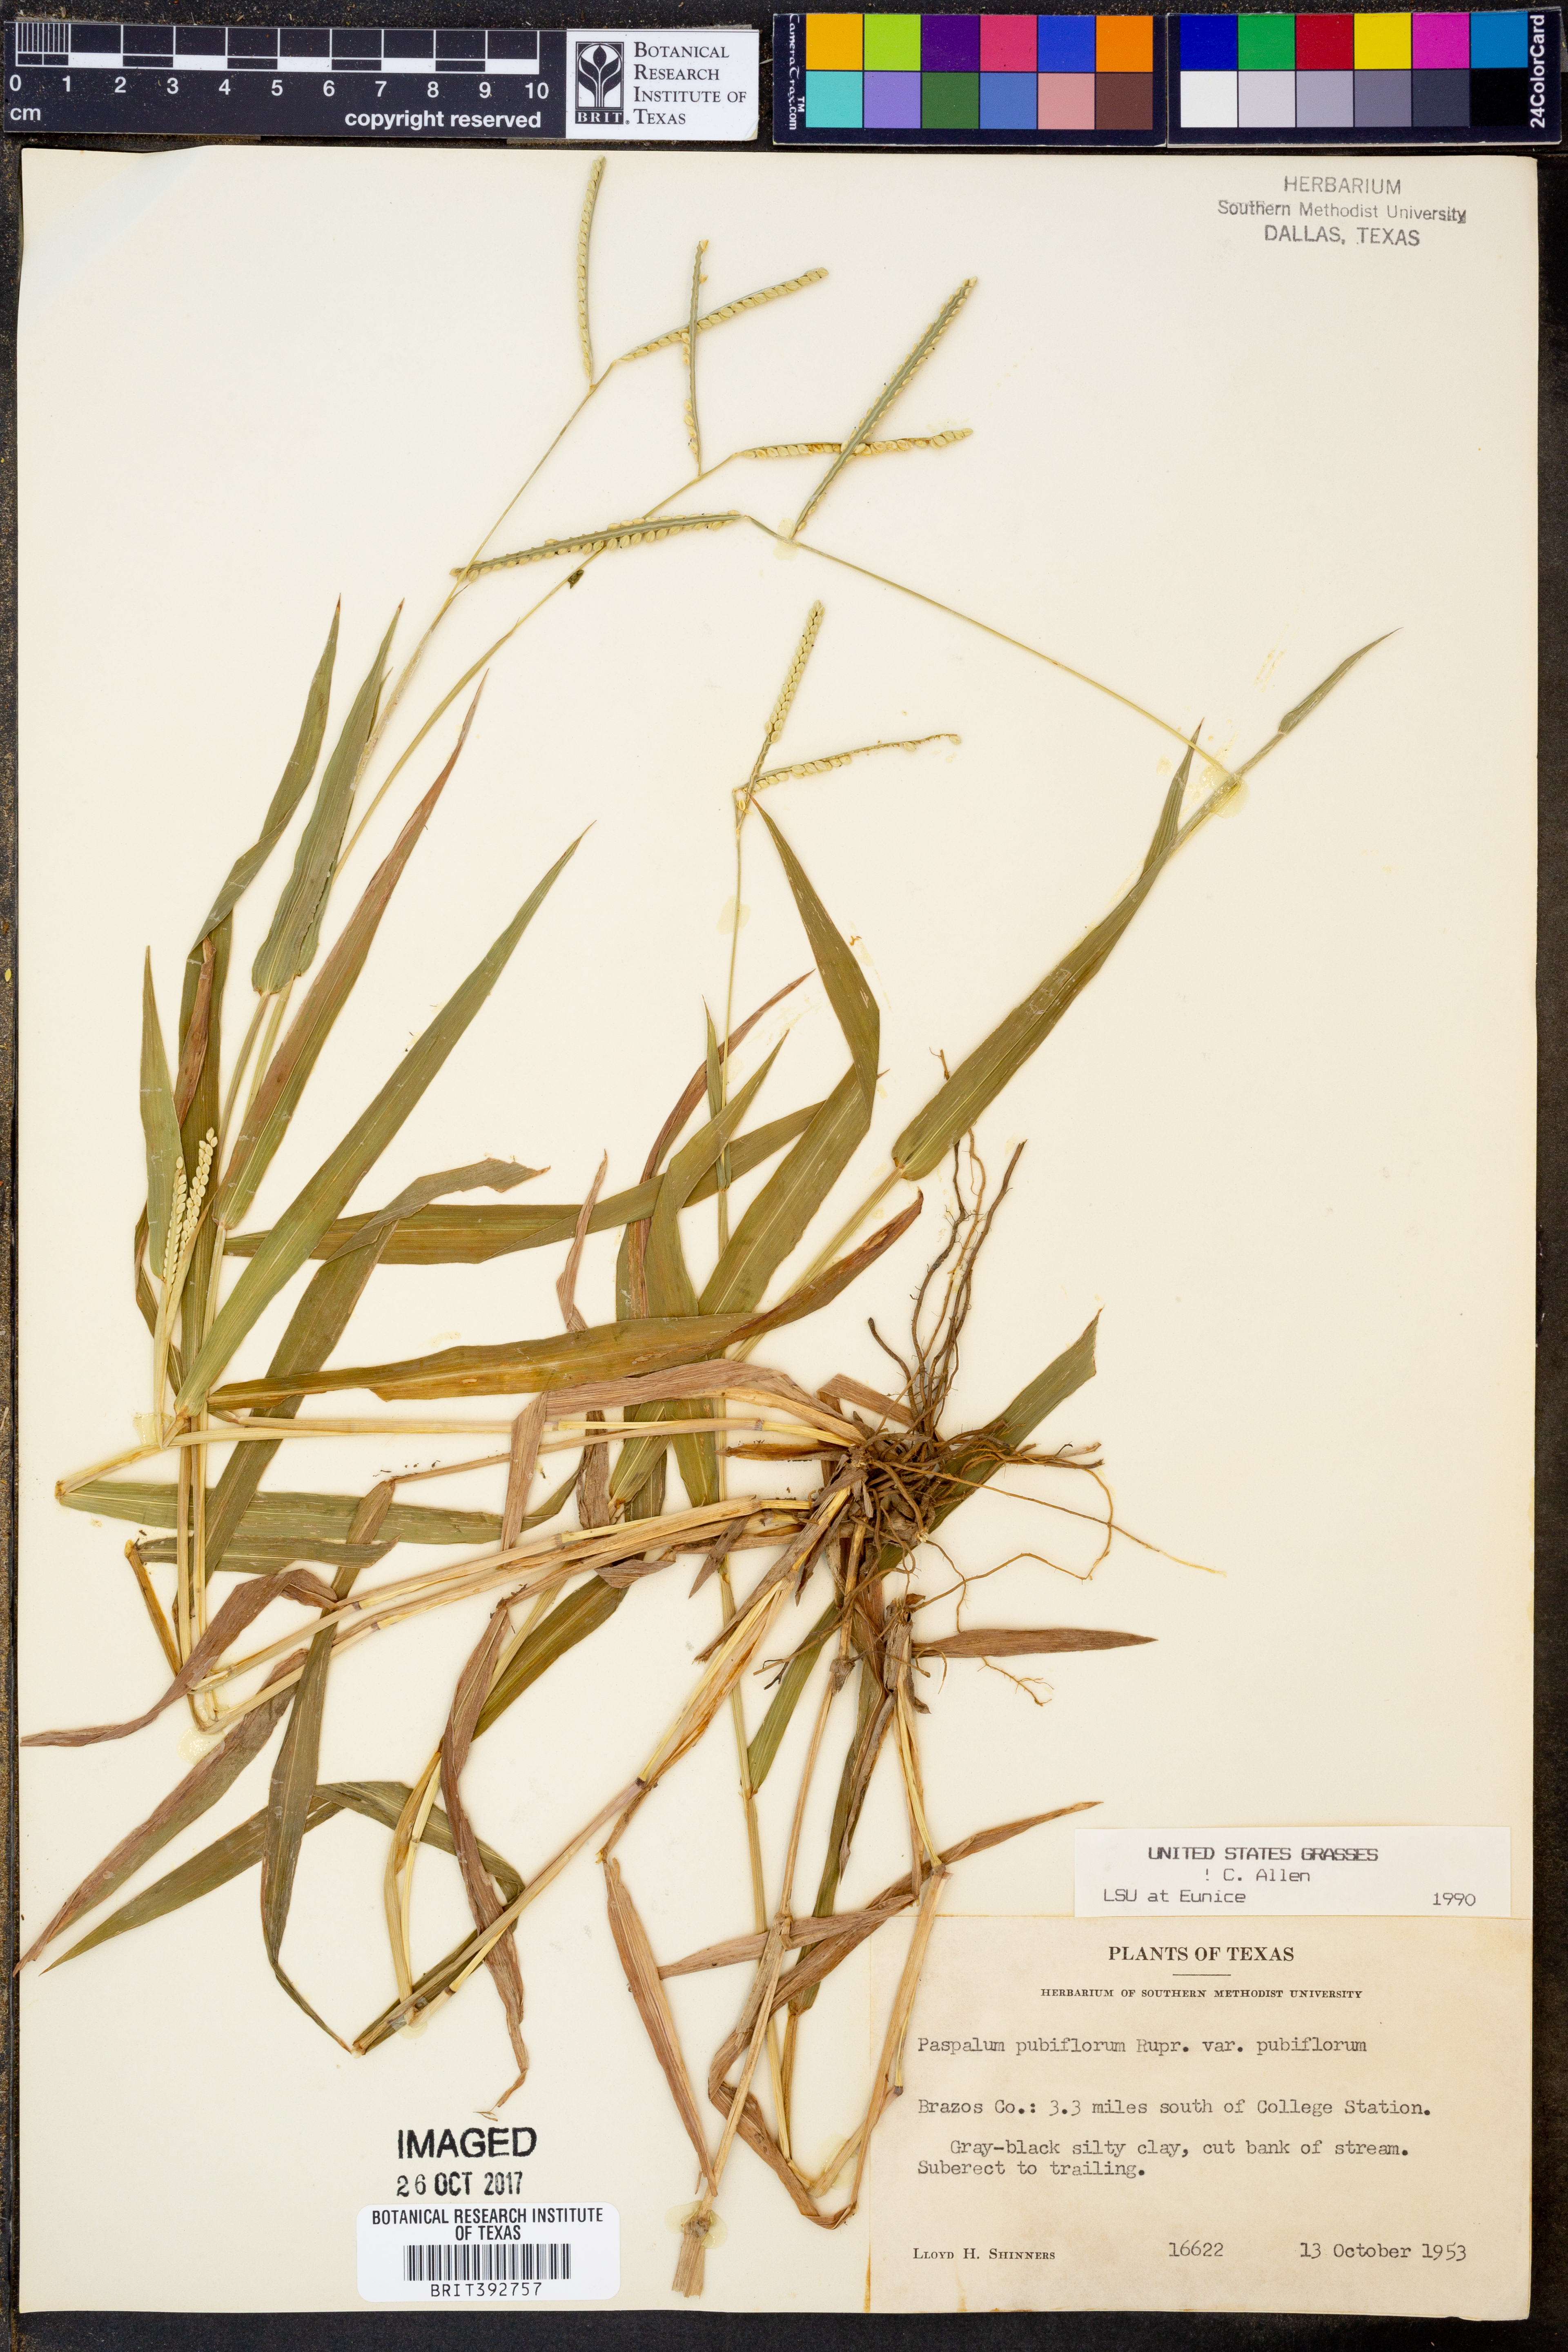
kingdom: Plantae
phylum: Tracheophyta
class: Liliopsida
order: Poales
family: Poaceae
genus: Paspalum
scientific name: Paspalum pubiflorum
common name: Hairy-seed paspalum
